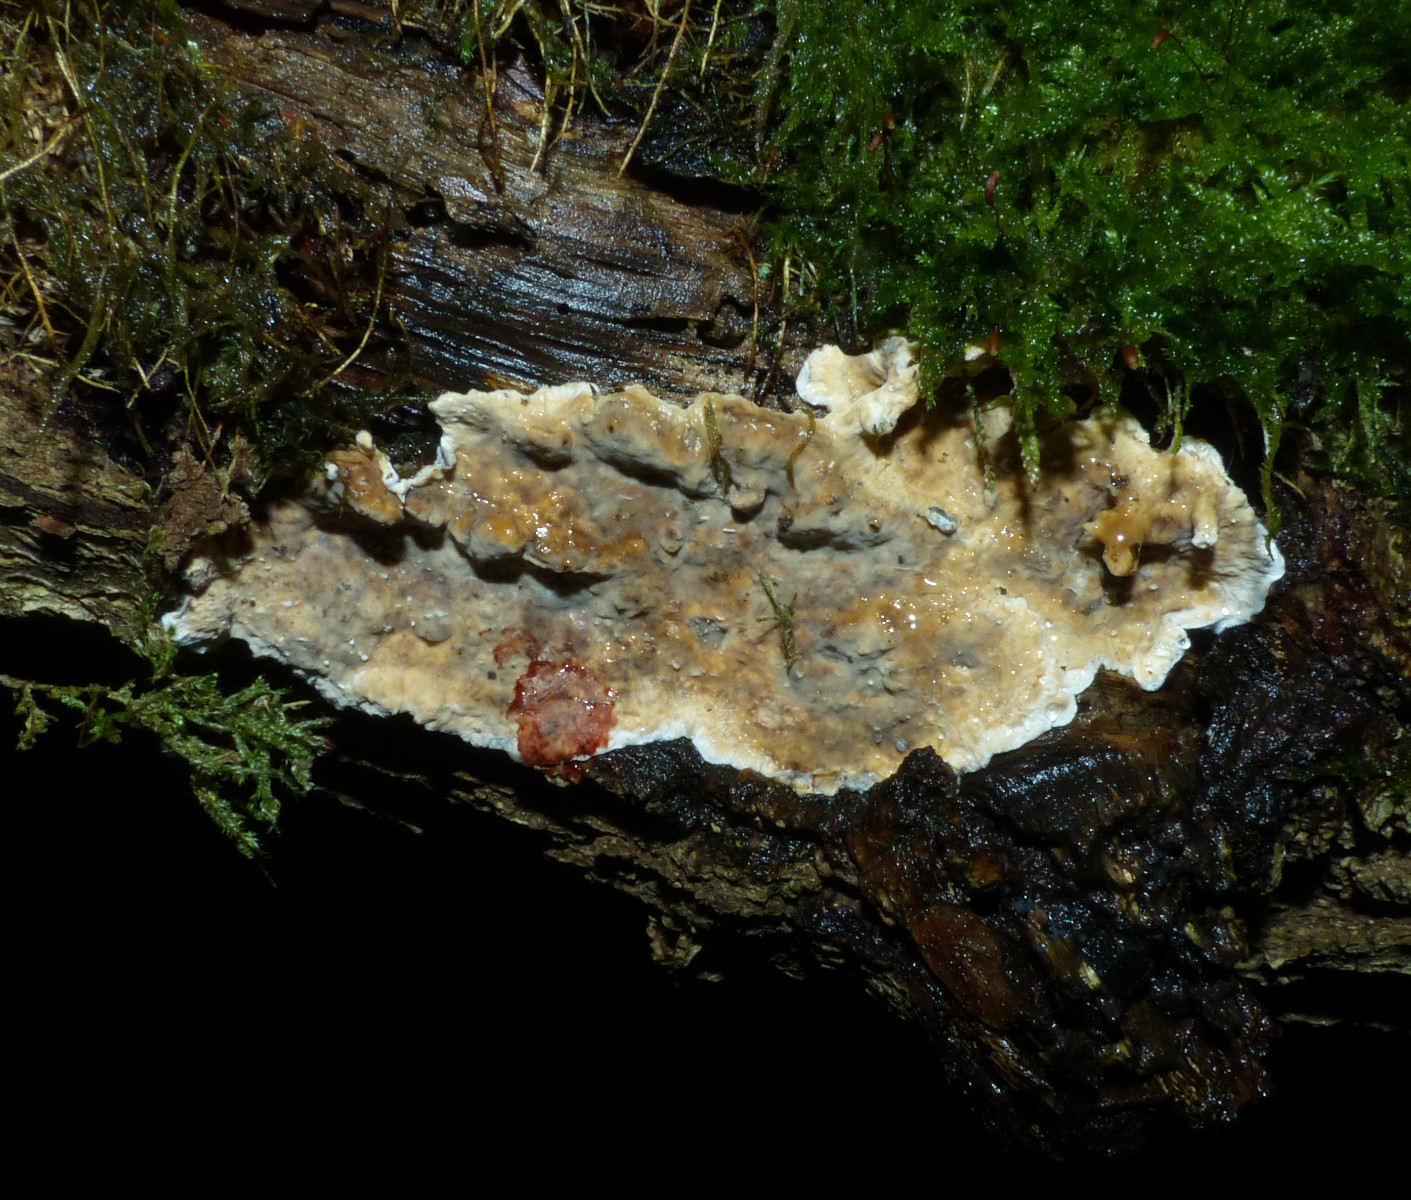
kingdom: Fungi
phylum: Basidiomycota
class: Agaricomycetes
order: Russulales
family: Stereaceae
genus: Stereum
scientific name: Stereum gausapatum
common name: tynd lædersvamp
